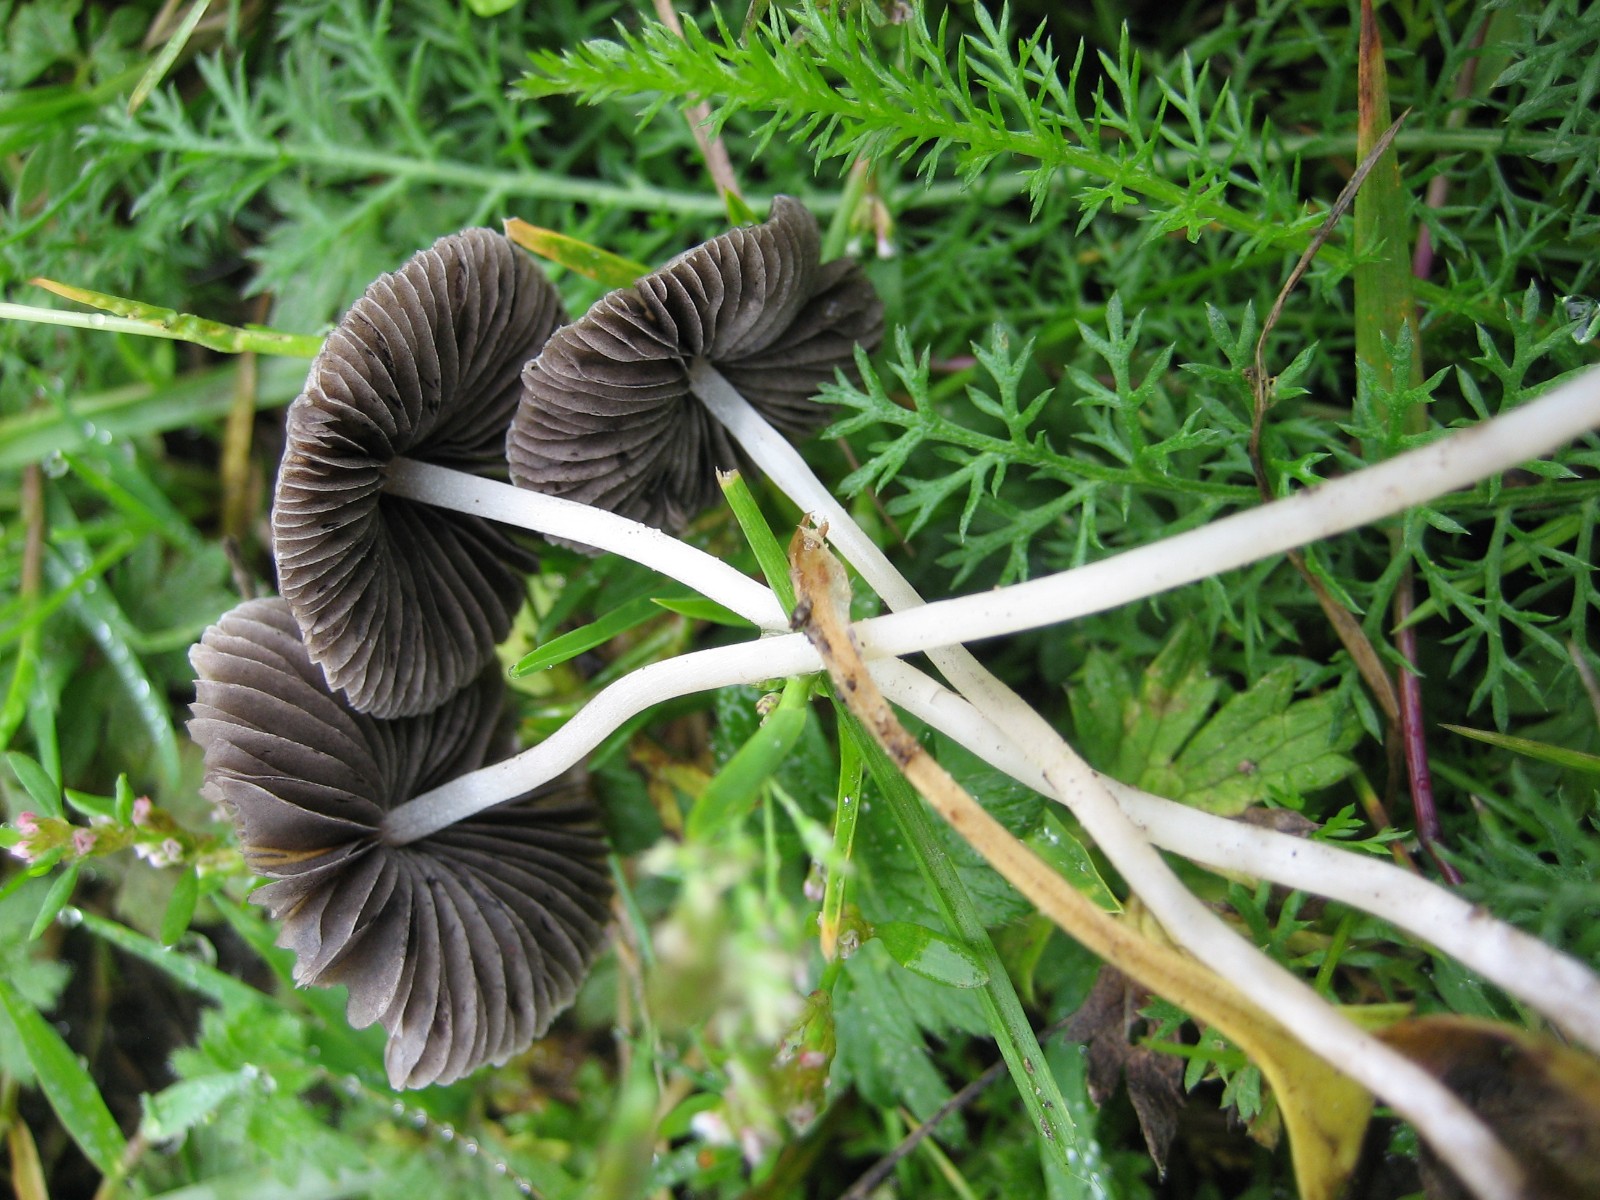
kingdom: Fungi
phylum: Basidiomycota
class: Agaricomycetes
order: Agaricales
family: Psathyrellaceae
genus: Psathyrella
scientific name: Psathyrella
